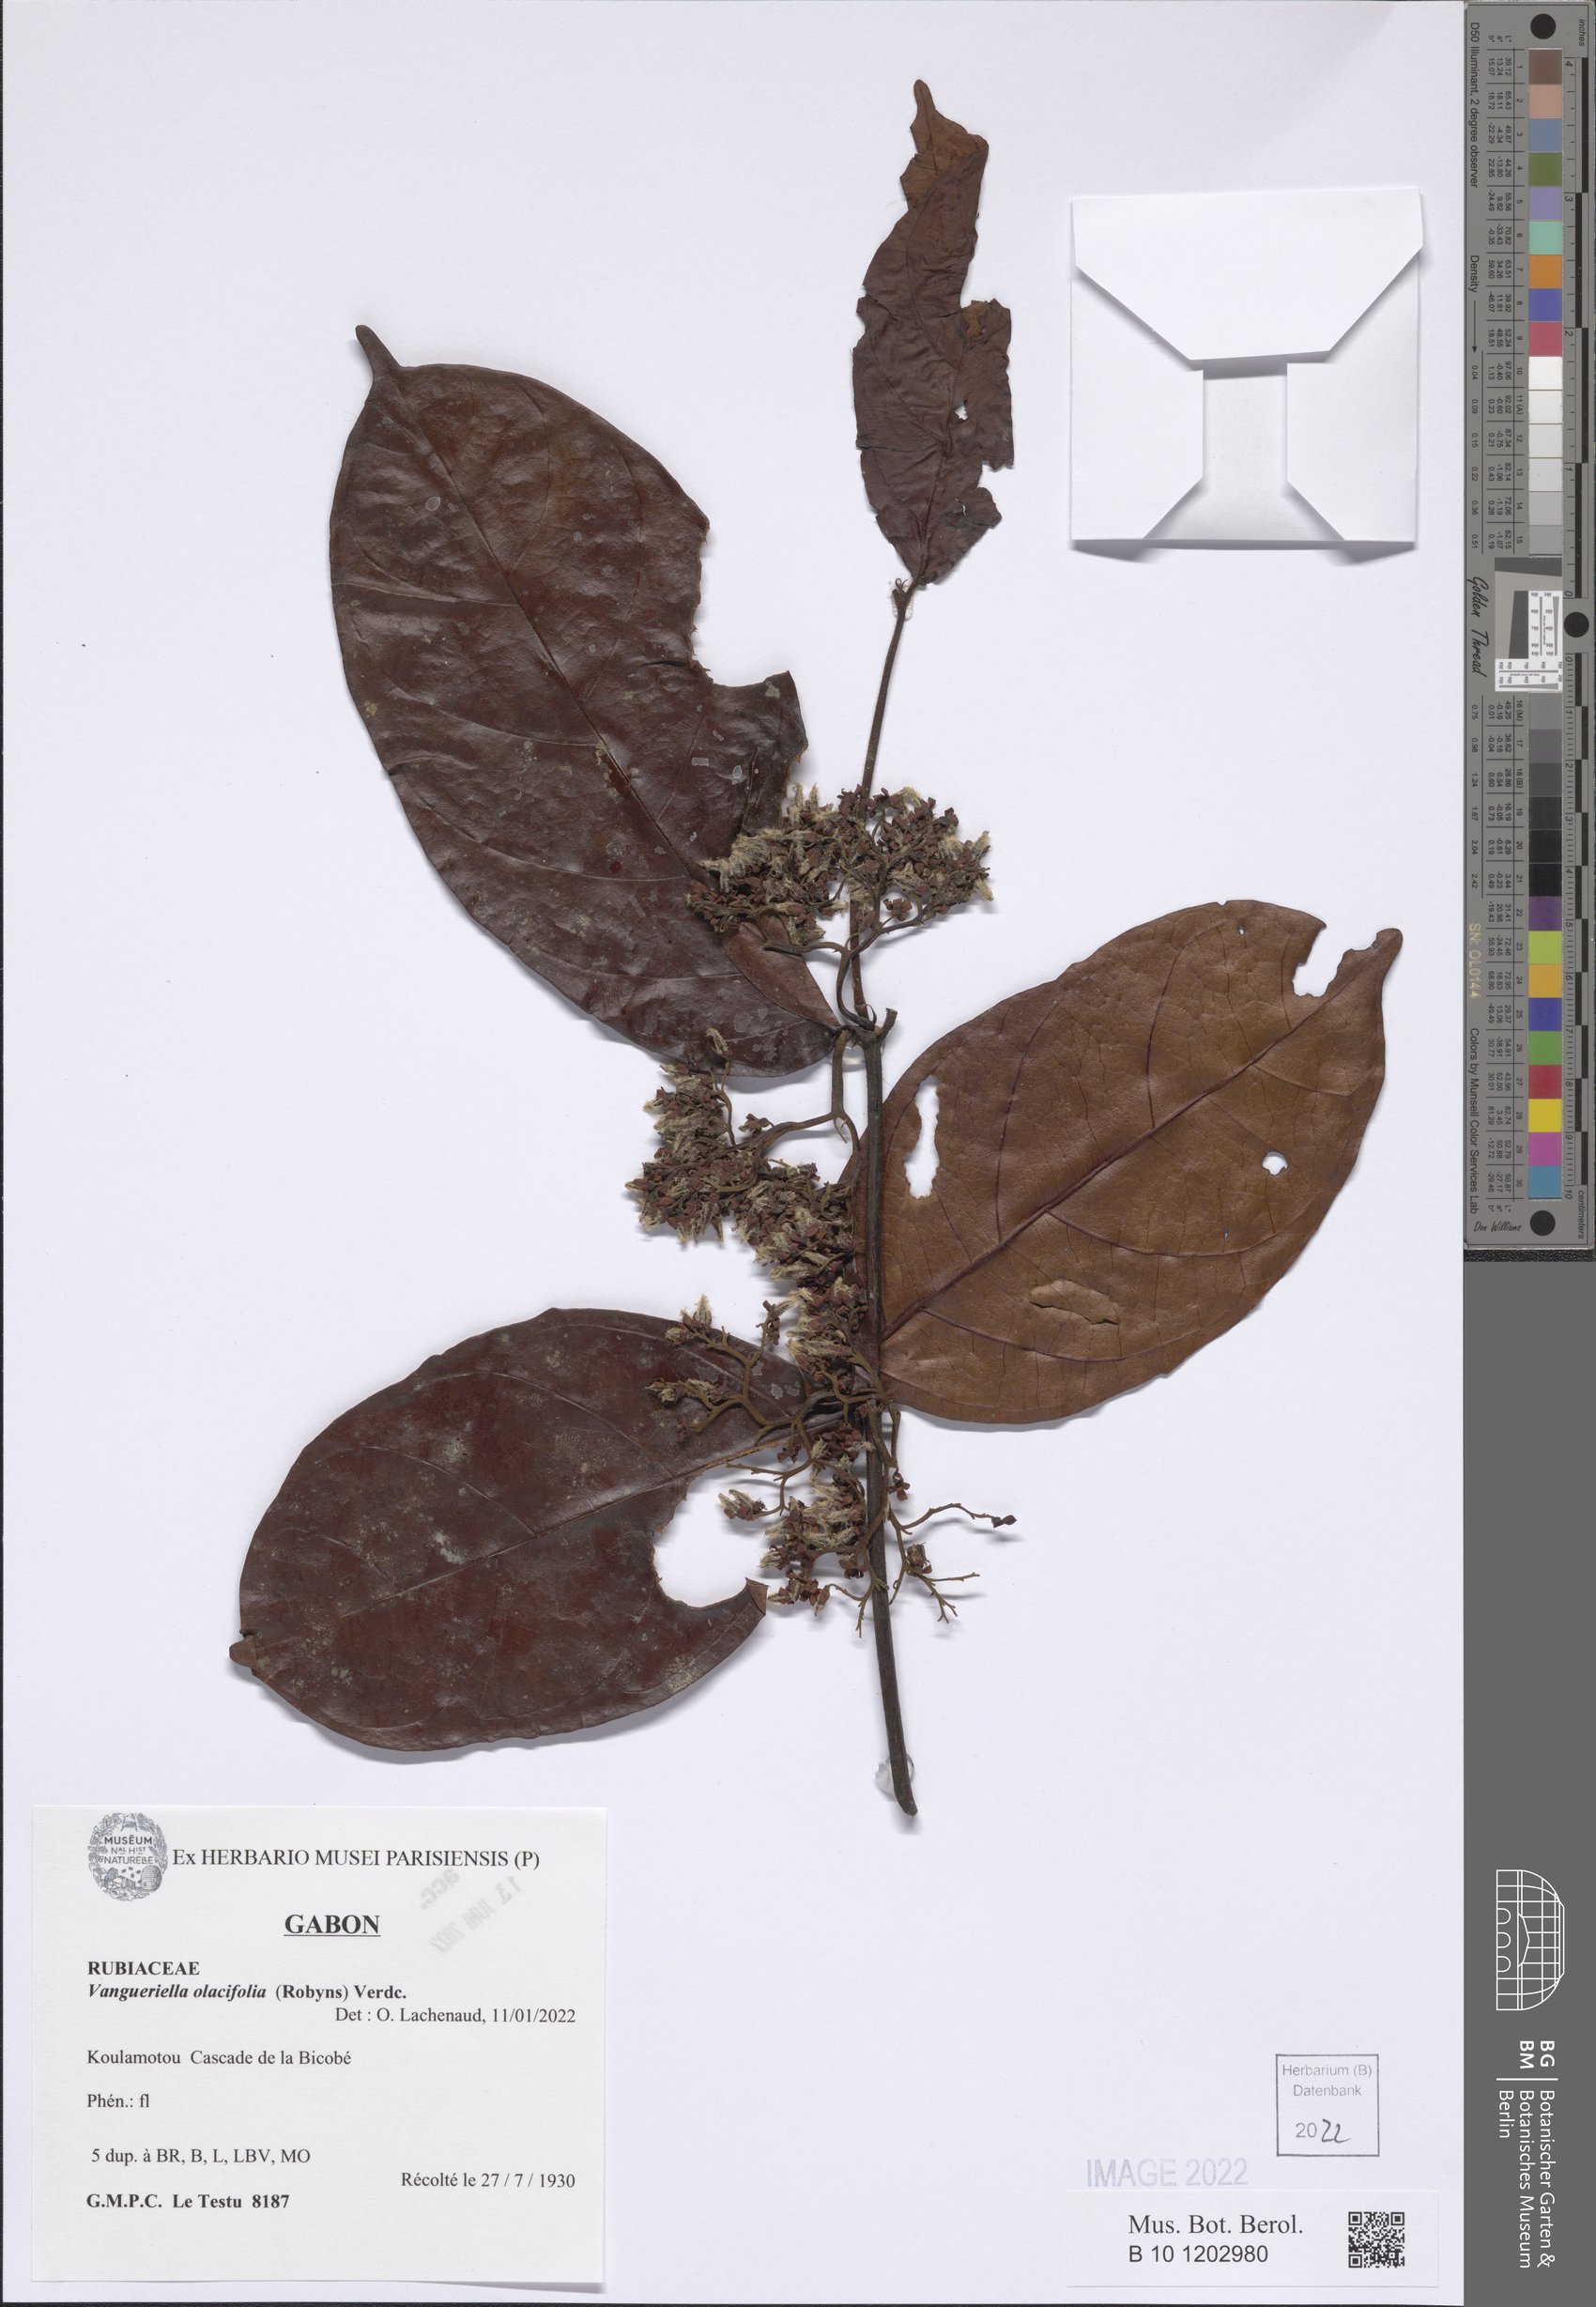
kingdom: Plantae
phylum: Tracheophyta
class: Magnoliopsida
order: Gentianales
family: Rubiaceae
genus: Vangueriella
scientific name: Vangueriella olacifolia
